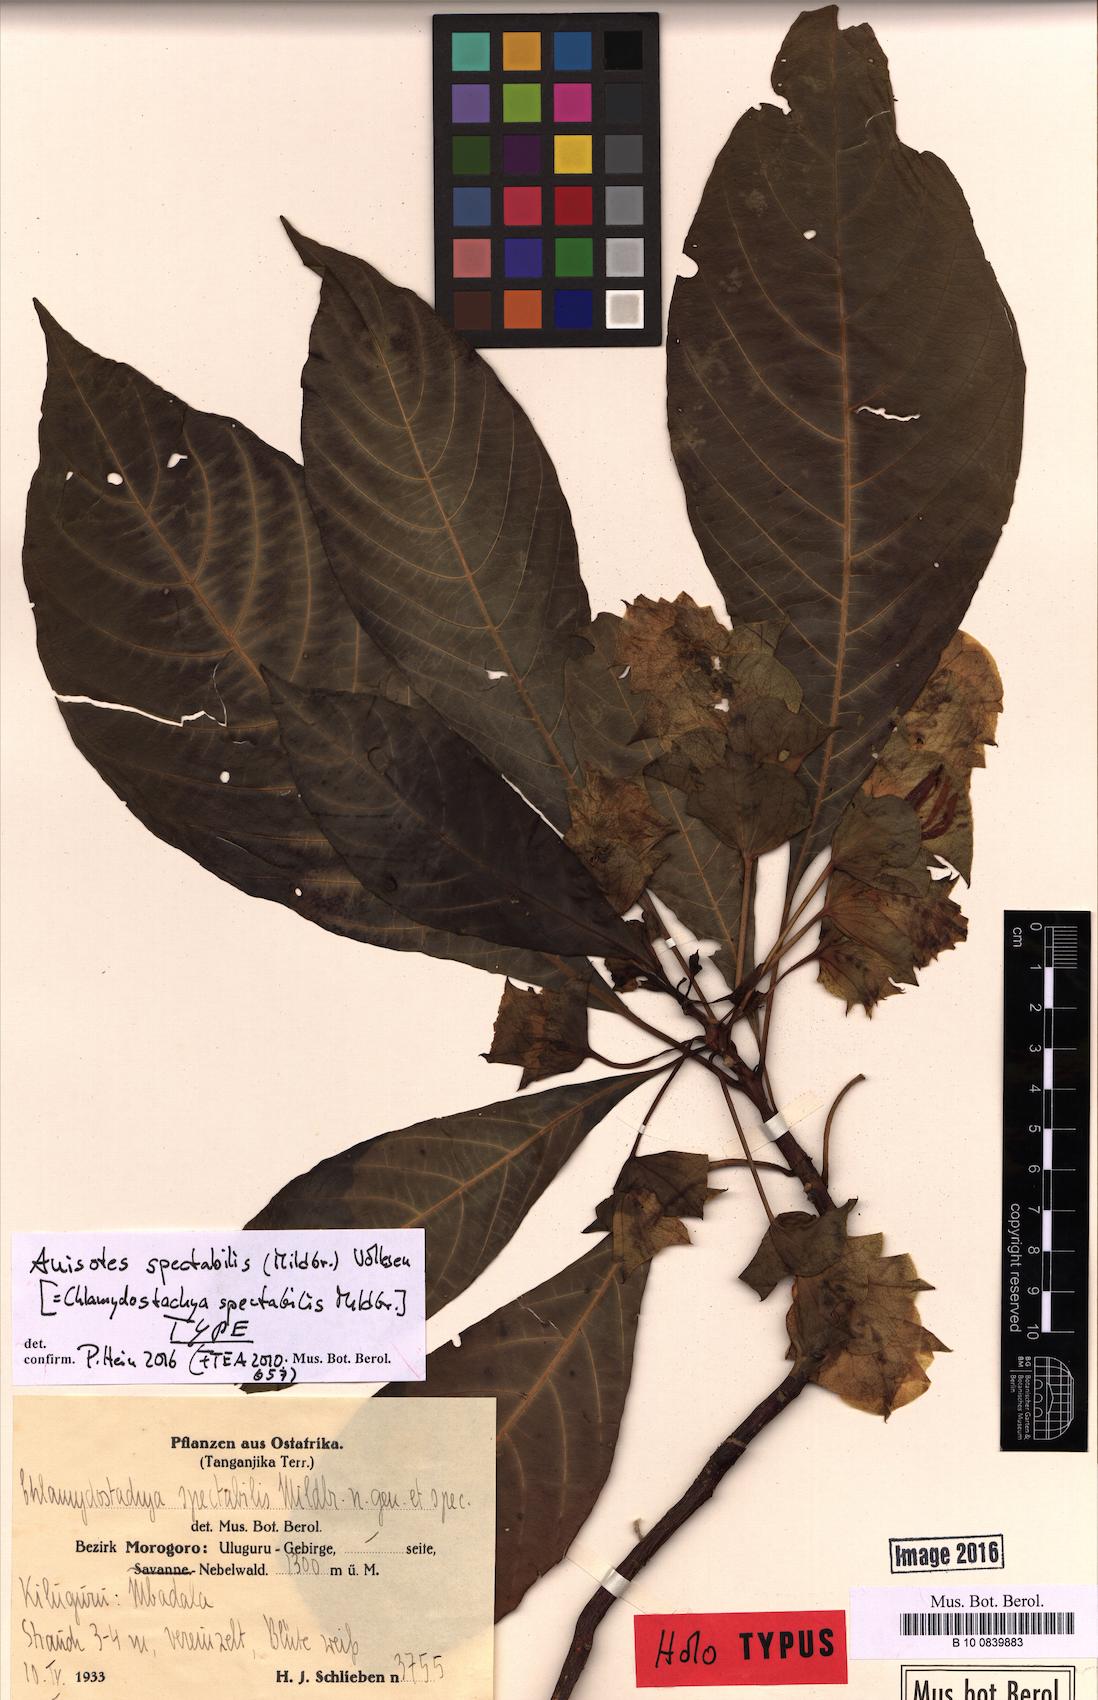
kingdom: Plantae
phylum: Tracheophyta
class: Magnoliopsida
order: Lamiales
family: Acanthaceae
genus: Anisotes
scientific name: Anisotes spectabilis
